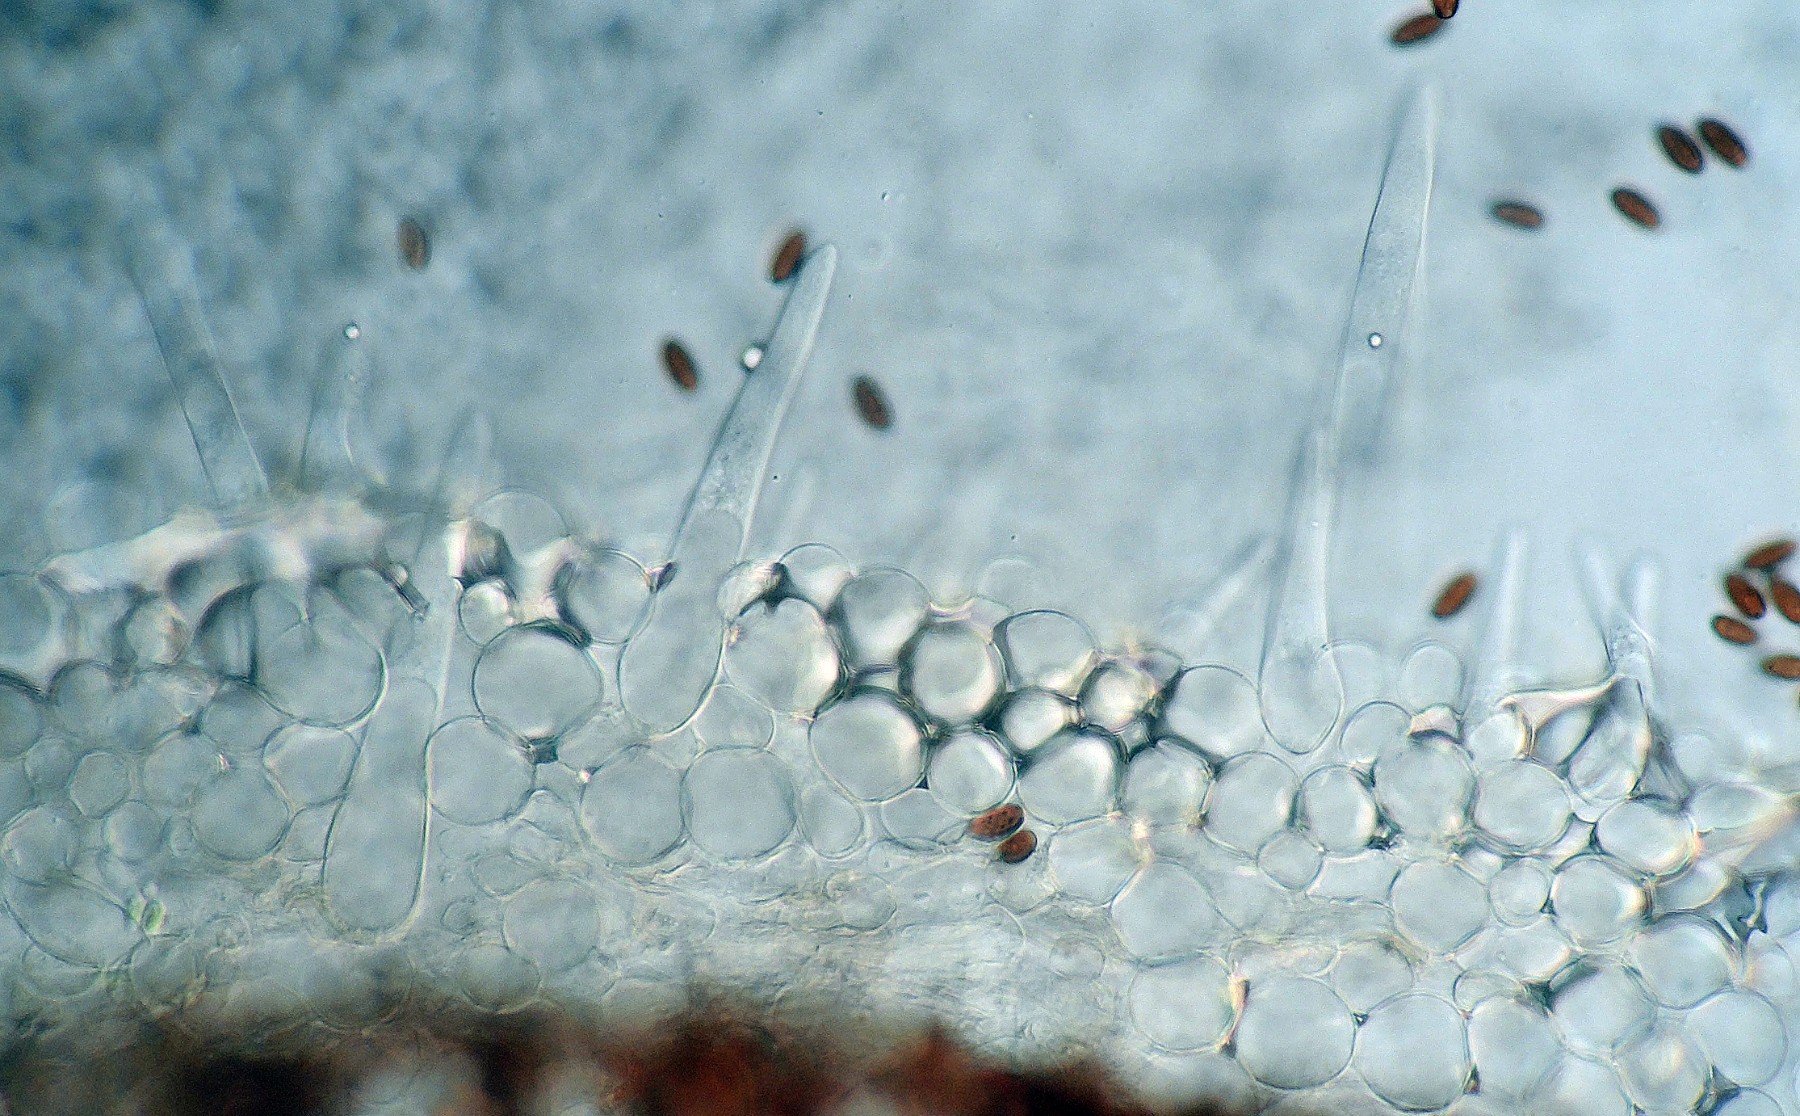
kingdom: Fungi
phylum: Basidiomycota
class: Agaricomycetes
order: Agaricales
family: Psathyrellaceae
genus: Tulosesus
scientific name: Tulosesus pellucidus
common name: skær blækhat
